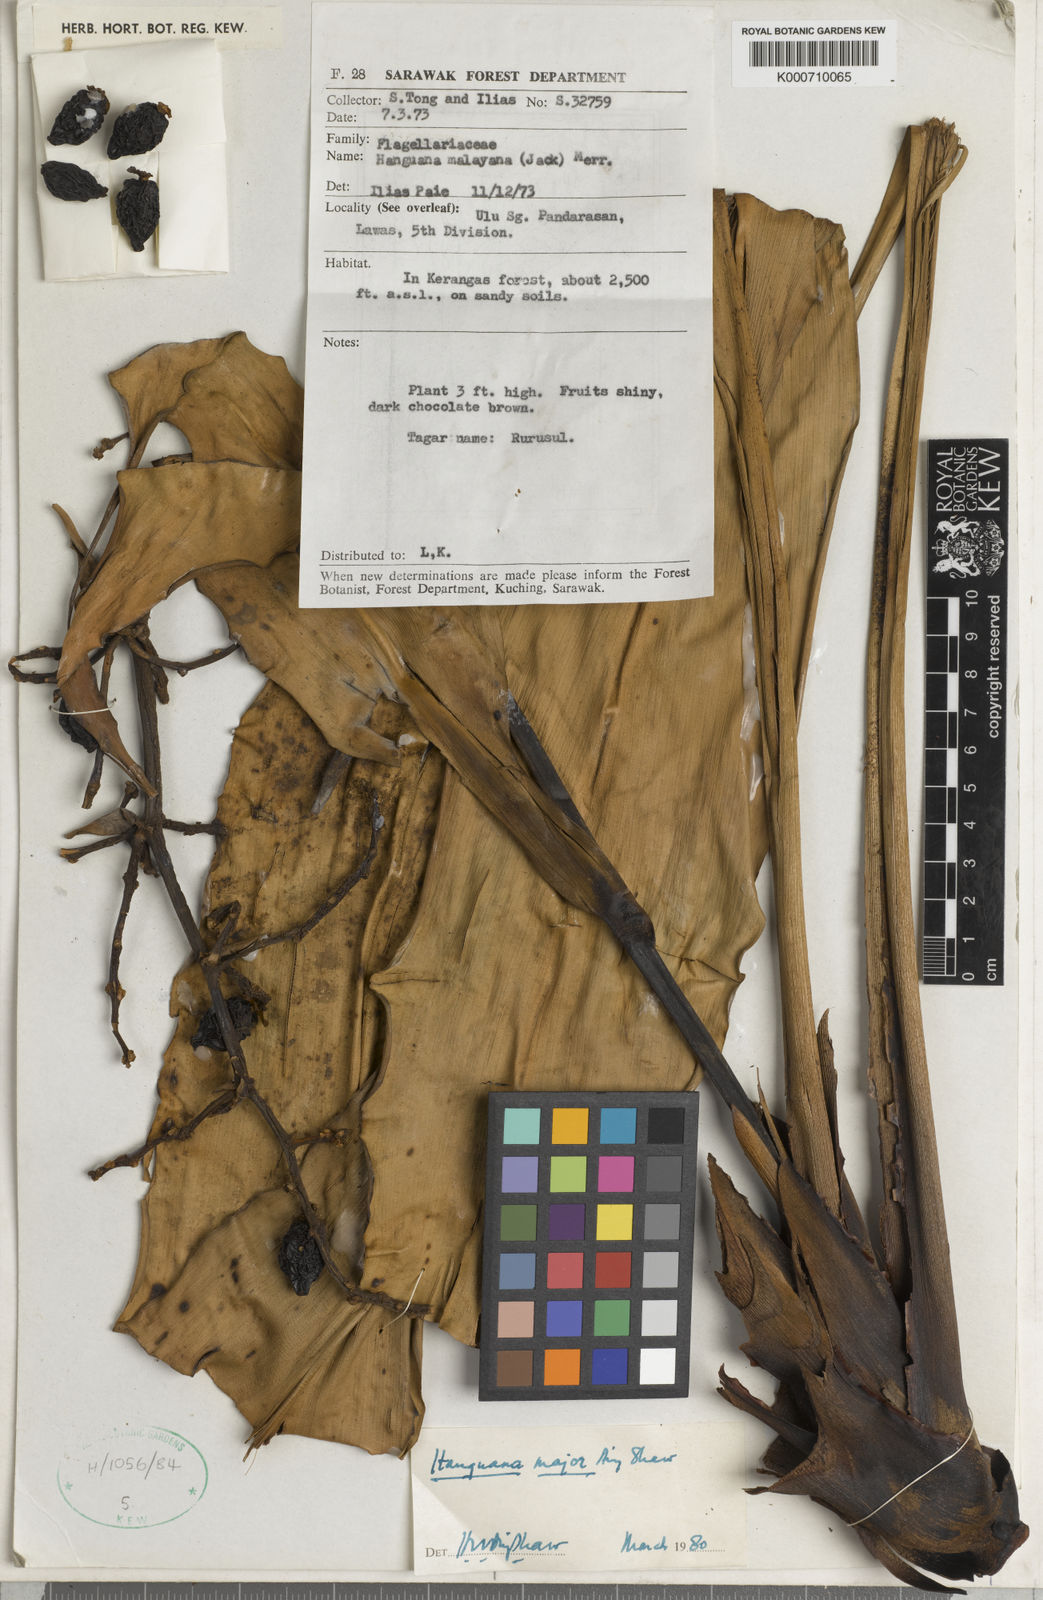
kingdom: Plantae
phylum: Tracheophyta
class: Liliopsida
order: Commelinales
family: Hanguanaceae
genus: Hanguana
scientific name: Hanguana major
